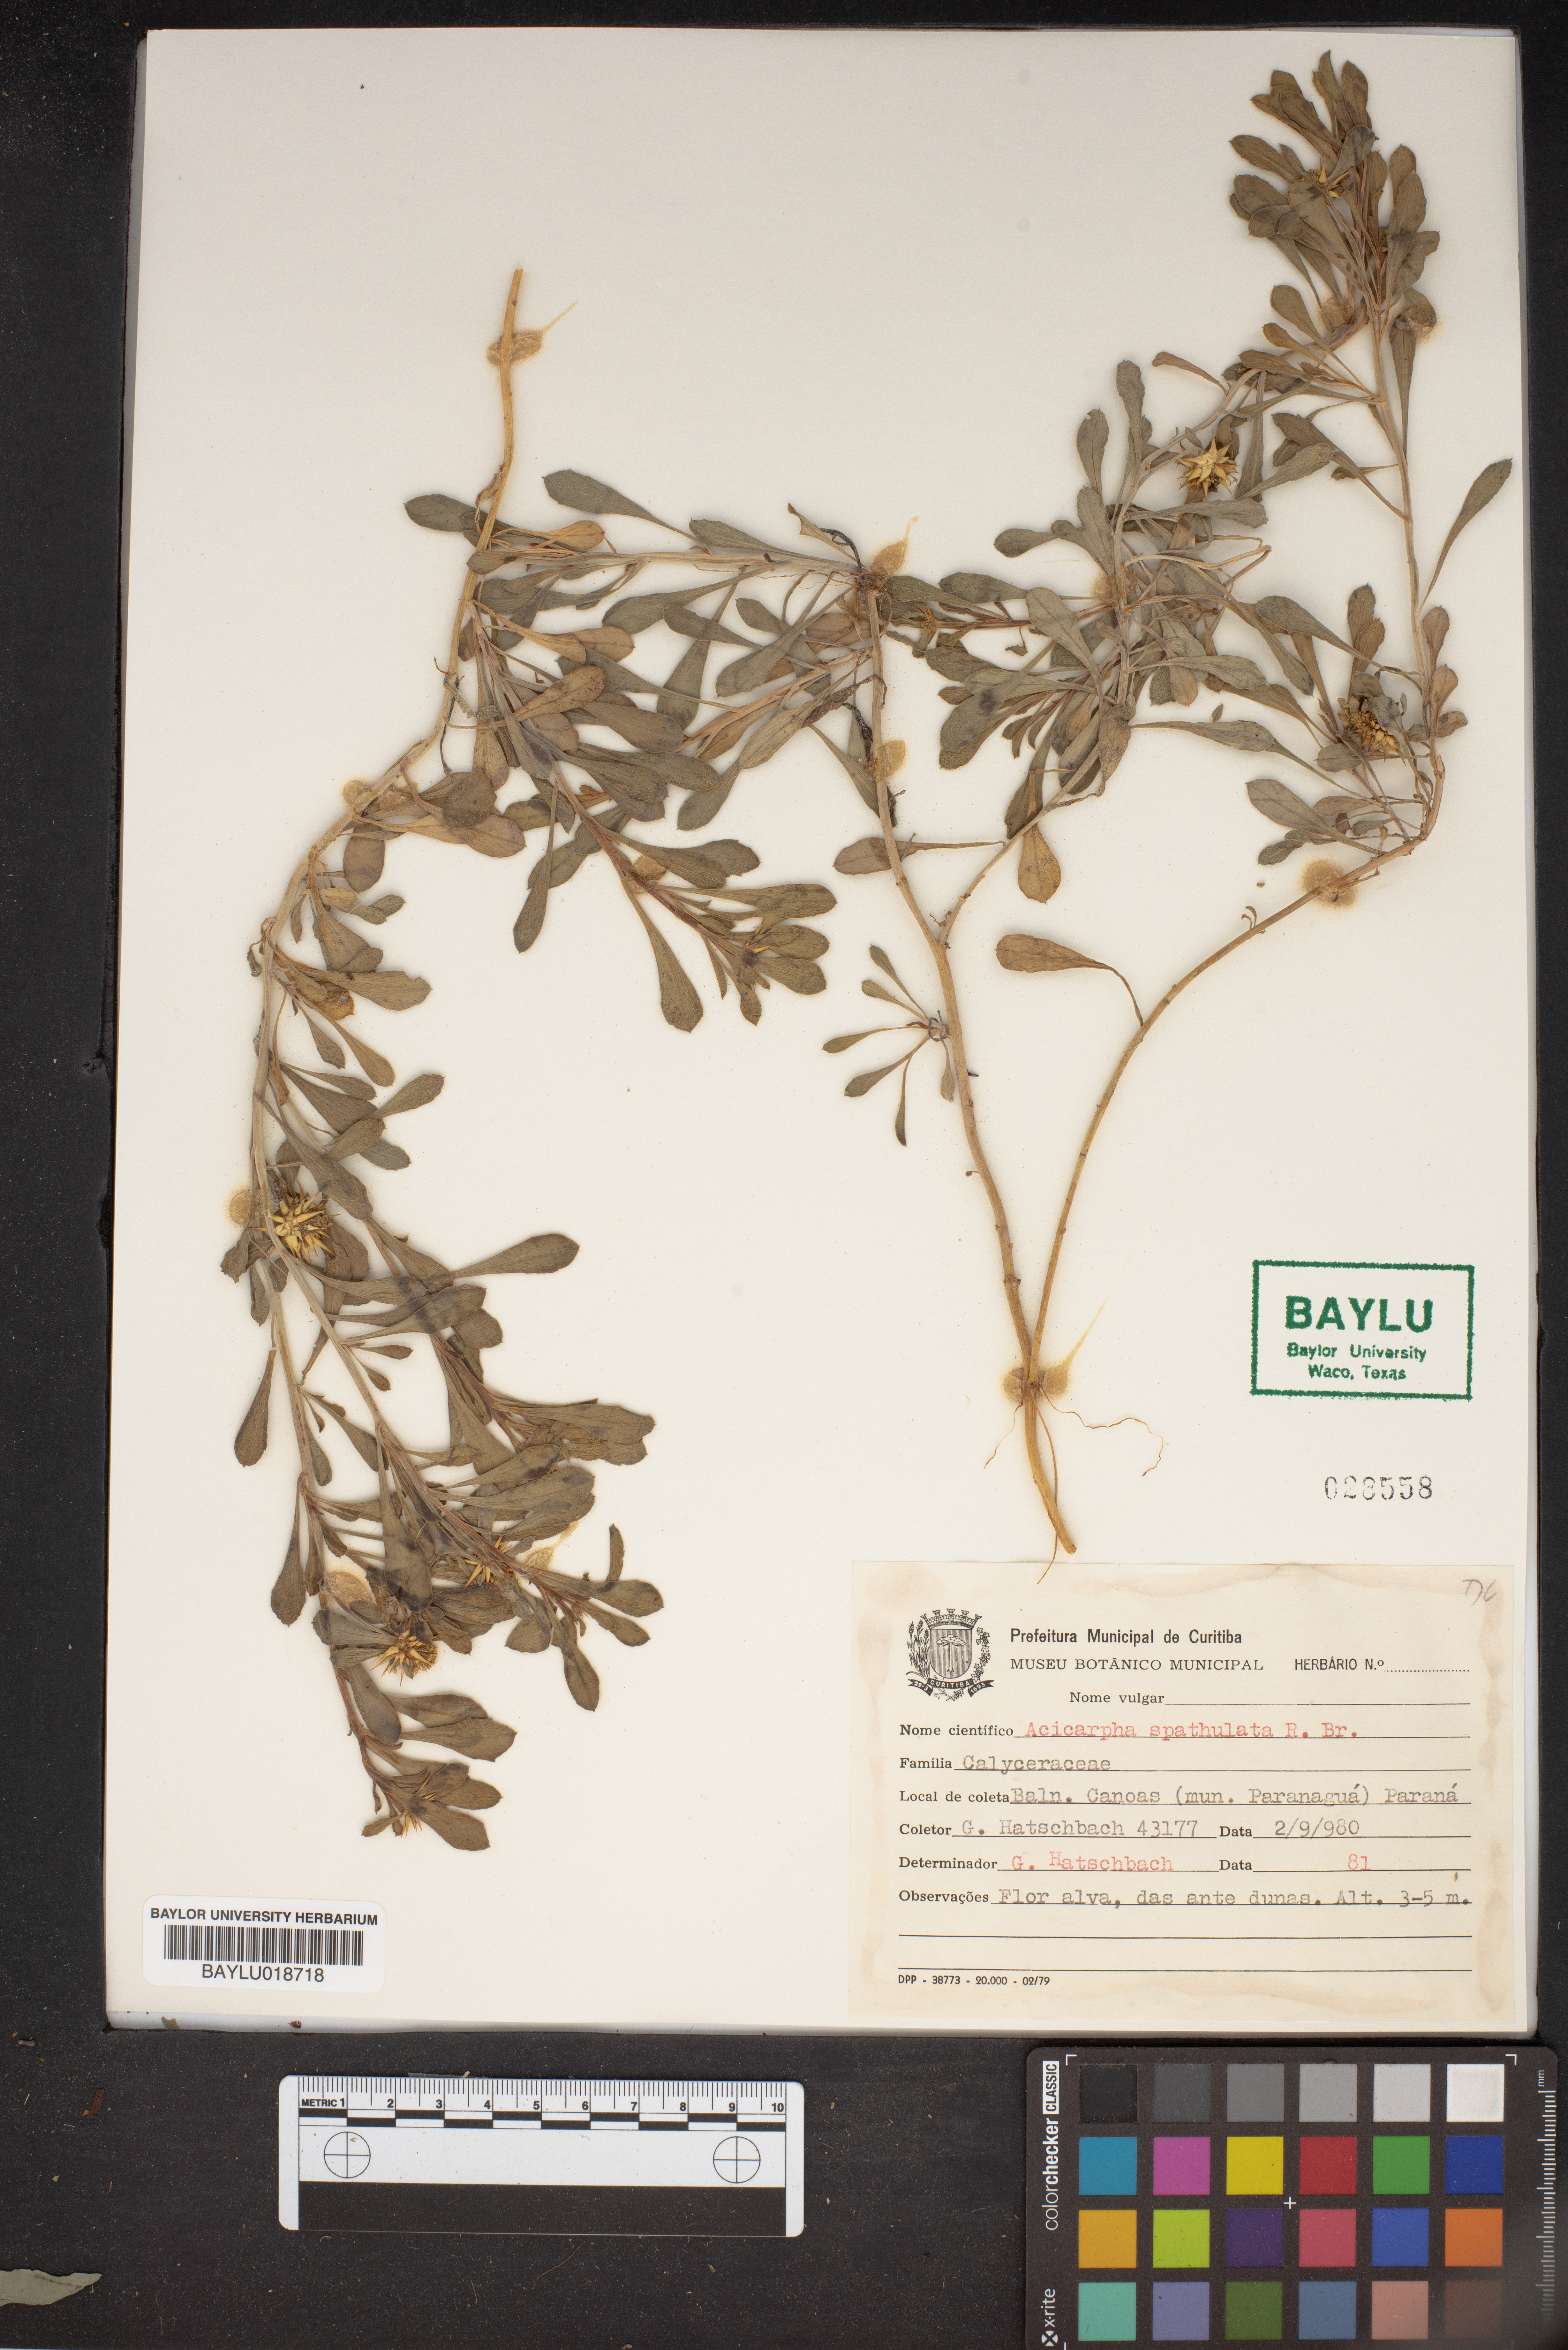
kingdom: Plantae
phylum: Tracheophyta
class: Magnoliopsida
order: Asterales
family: Calyceraceae
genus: Acicarpha
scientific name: Acicarpha spathulata
